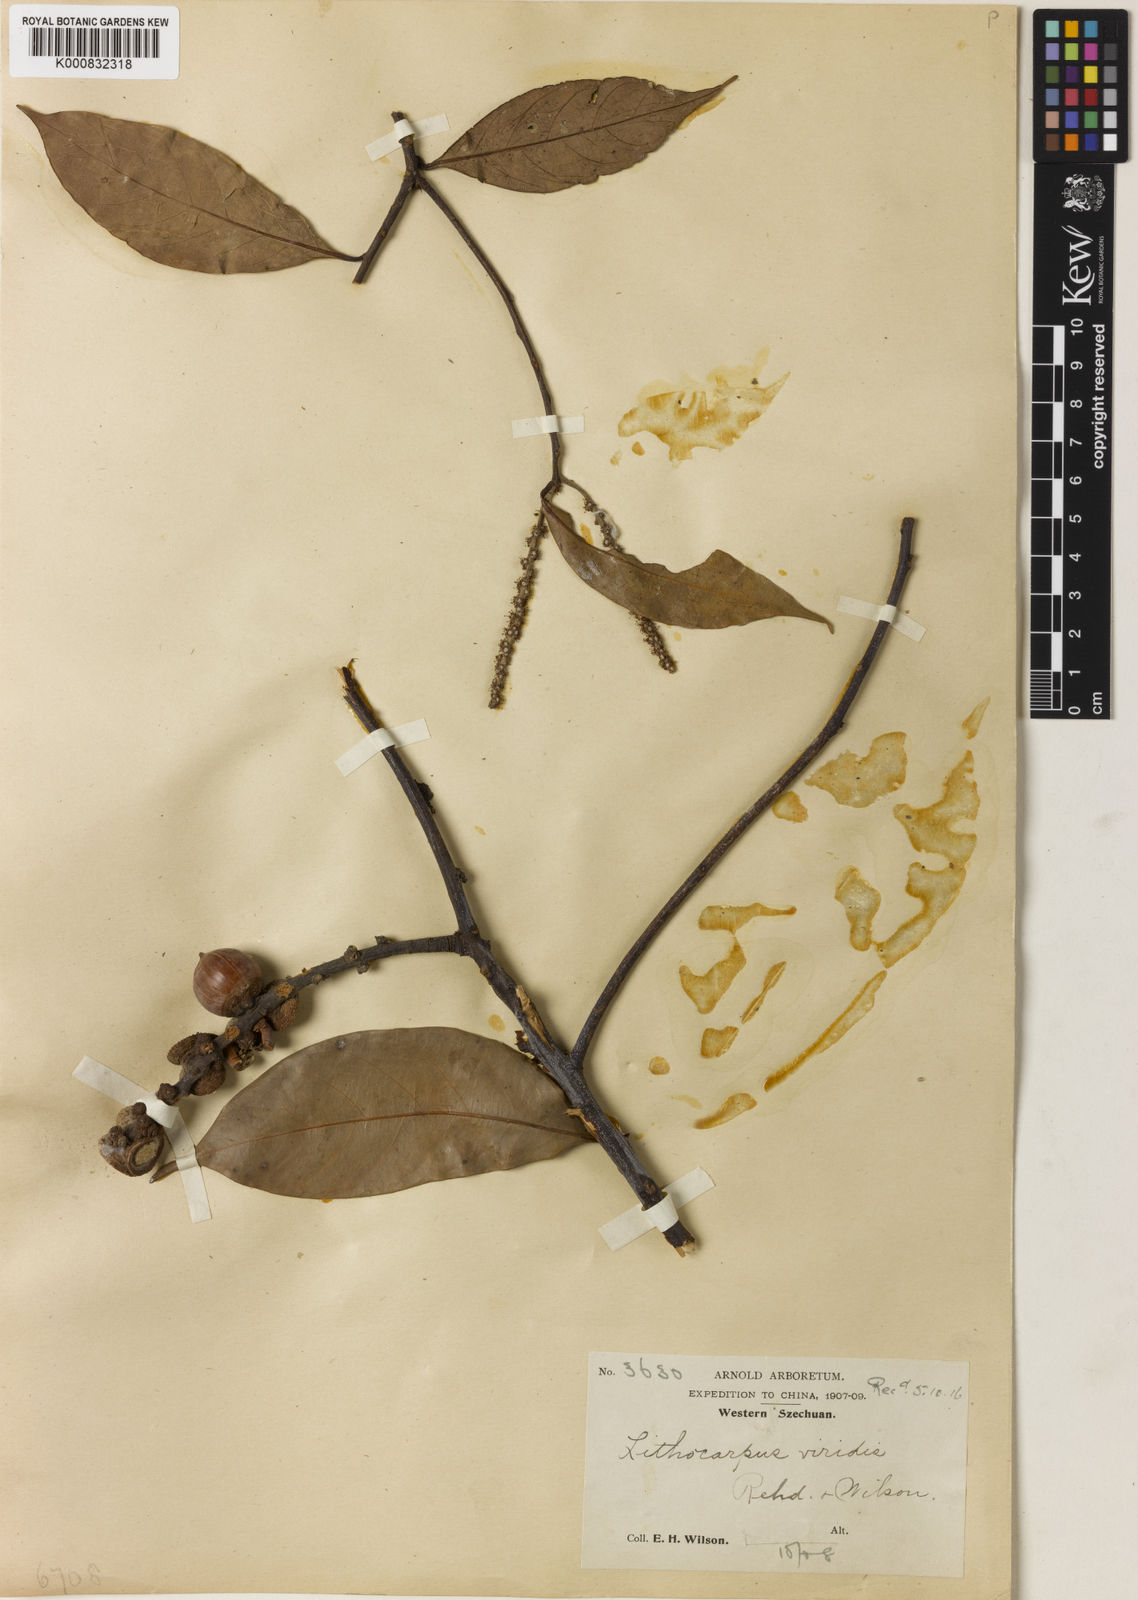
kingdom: Plantae
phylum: Tracheophyta
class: Magnoliopsida
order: Fagales
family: Fagaceae
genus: Lithocarpus
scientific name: Lithocarpus dealbatus
